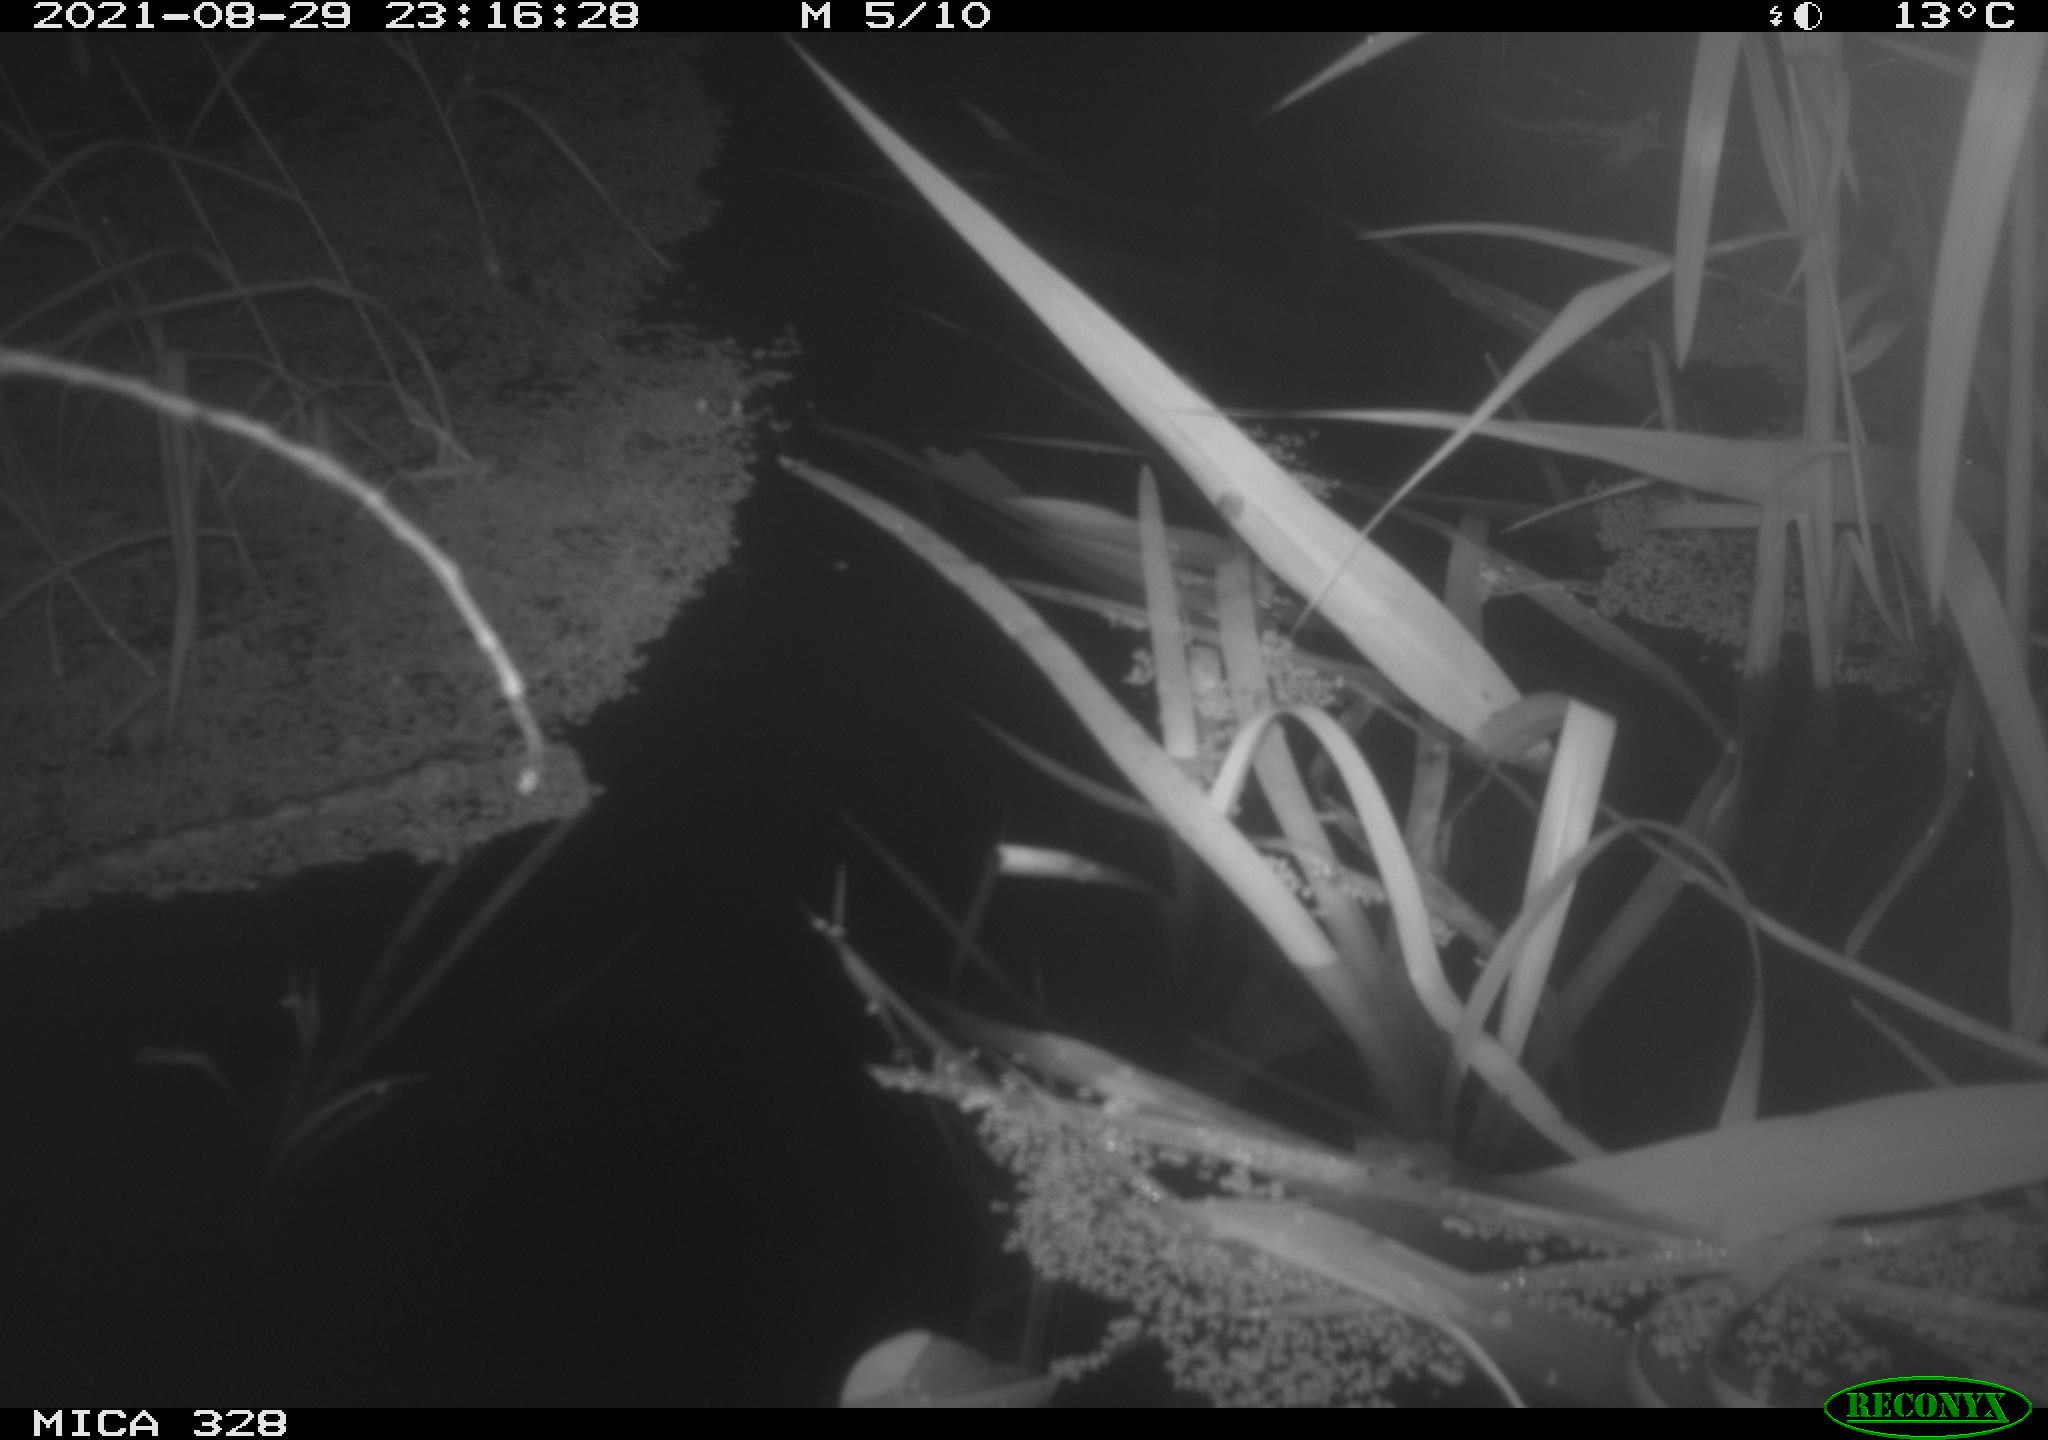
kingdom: Animalia
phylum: Chordata
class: Mammalia
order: Rodentia
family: Muridae
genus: Rattus
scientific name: Rattus norvegicus
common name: Brown rat
